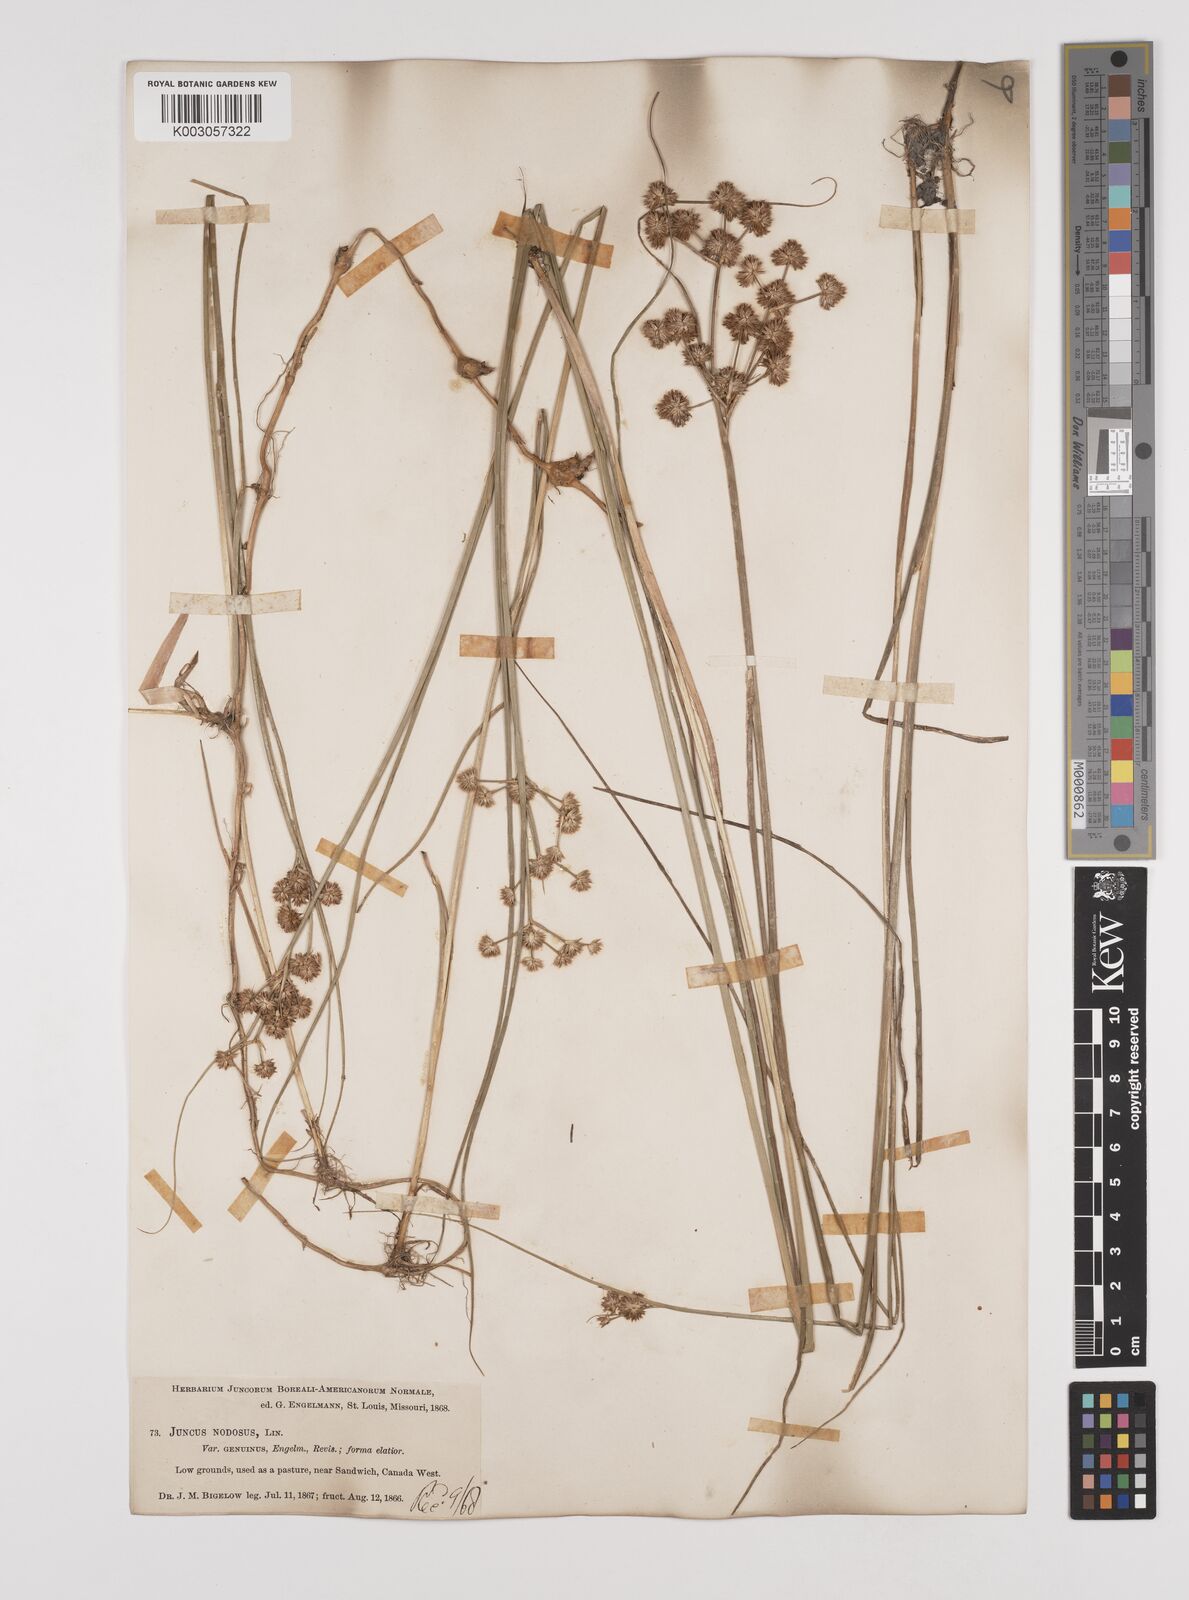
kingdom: Plantae
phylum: Tracheophyta
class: Liliopsida
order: Poales
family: Juncaceae
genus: Juncus
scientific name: Juncus nodosus
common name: Knotted rush
